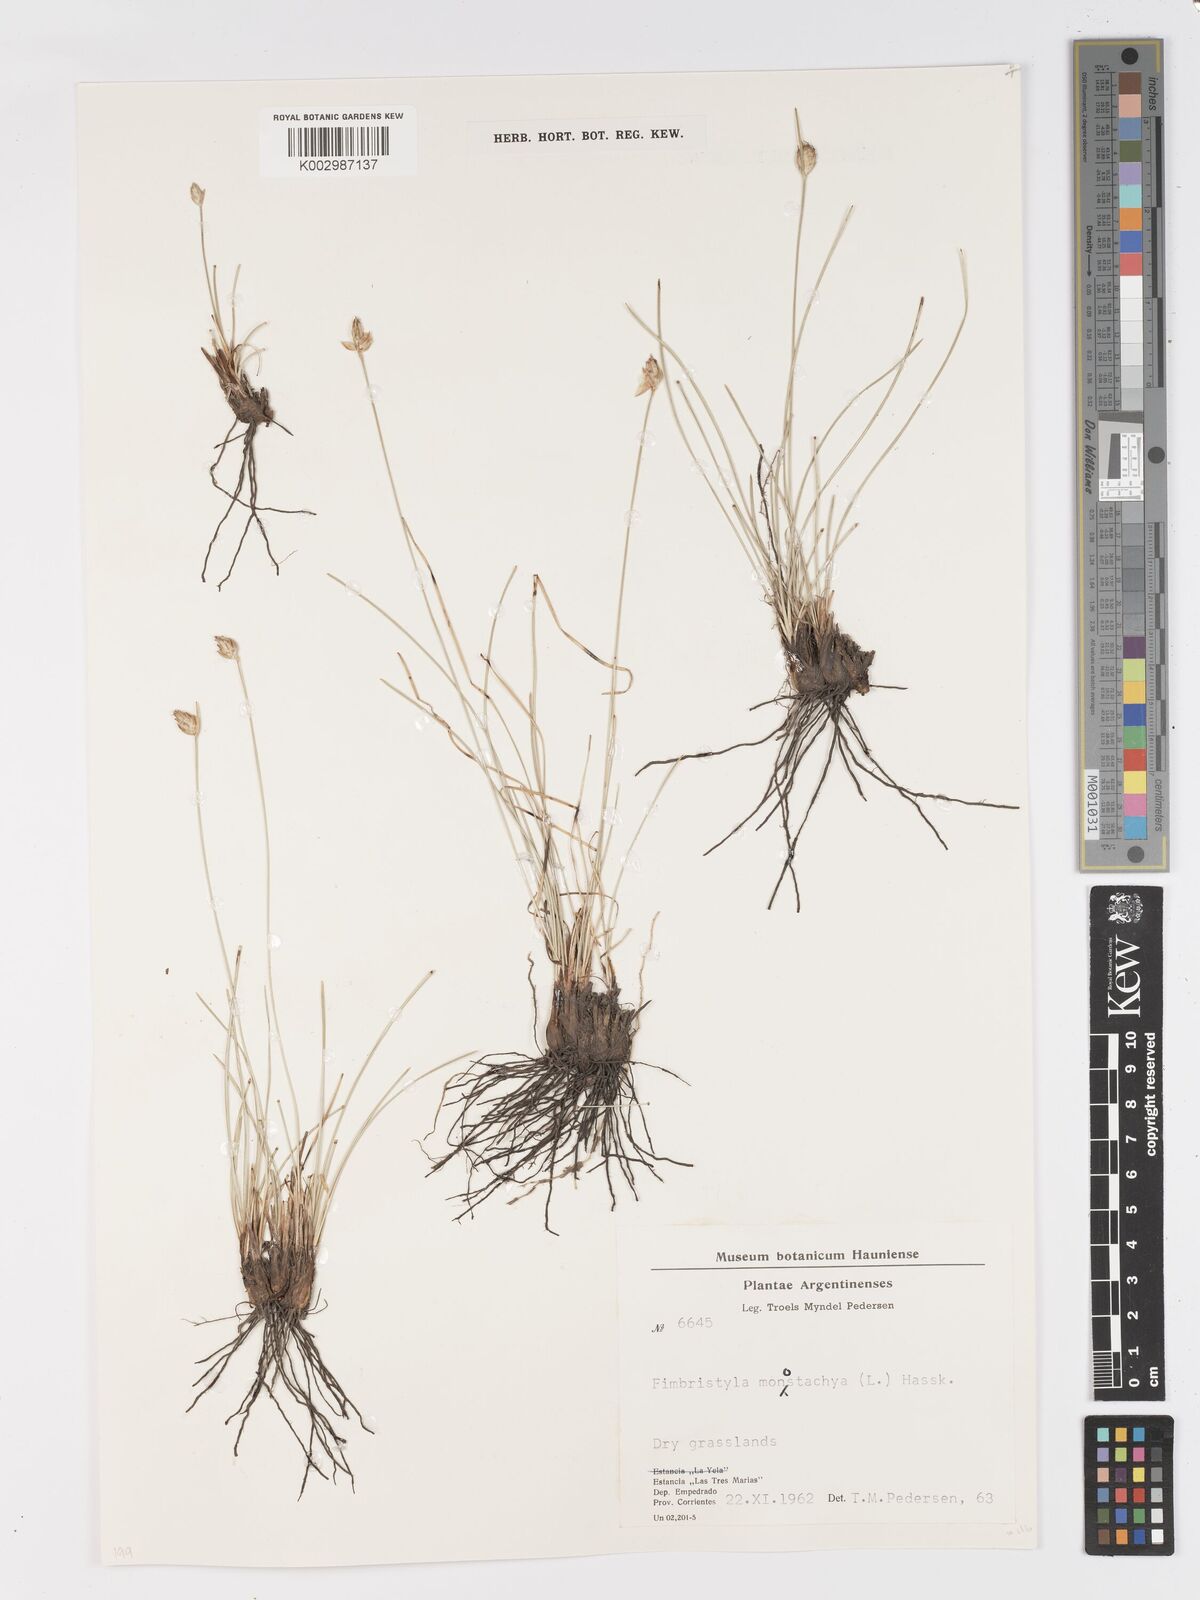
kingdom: Plantae
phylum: Tracheophyta
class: Liliopsida
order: Poales
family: Cyperaceae
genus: Abildgaardia
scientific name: Abildgaardia ovata
